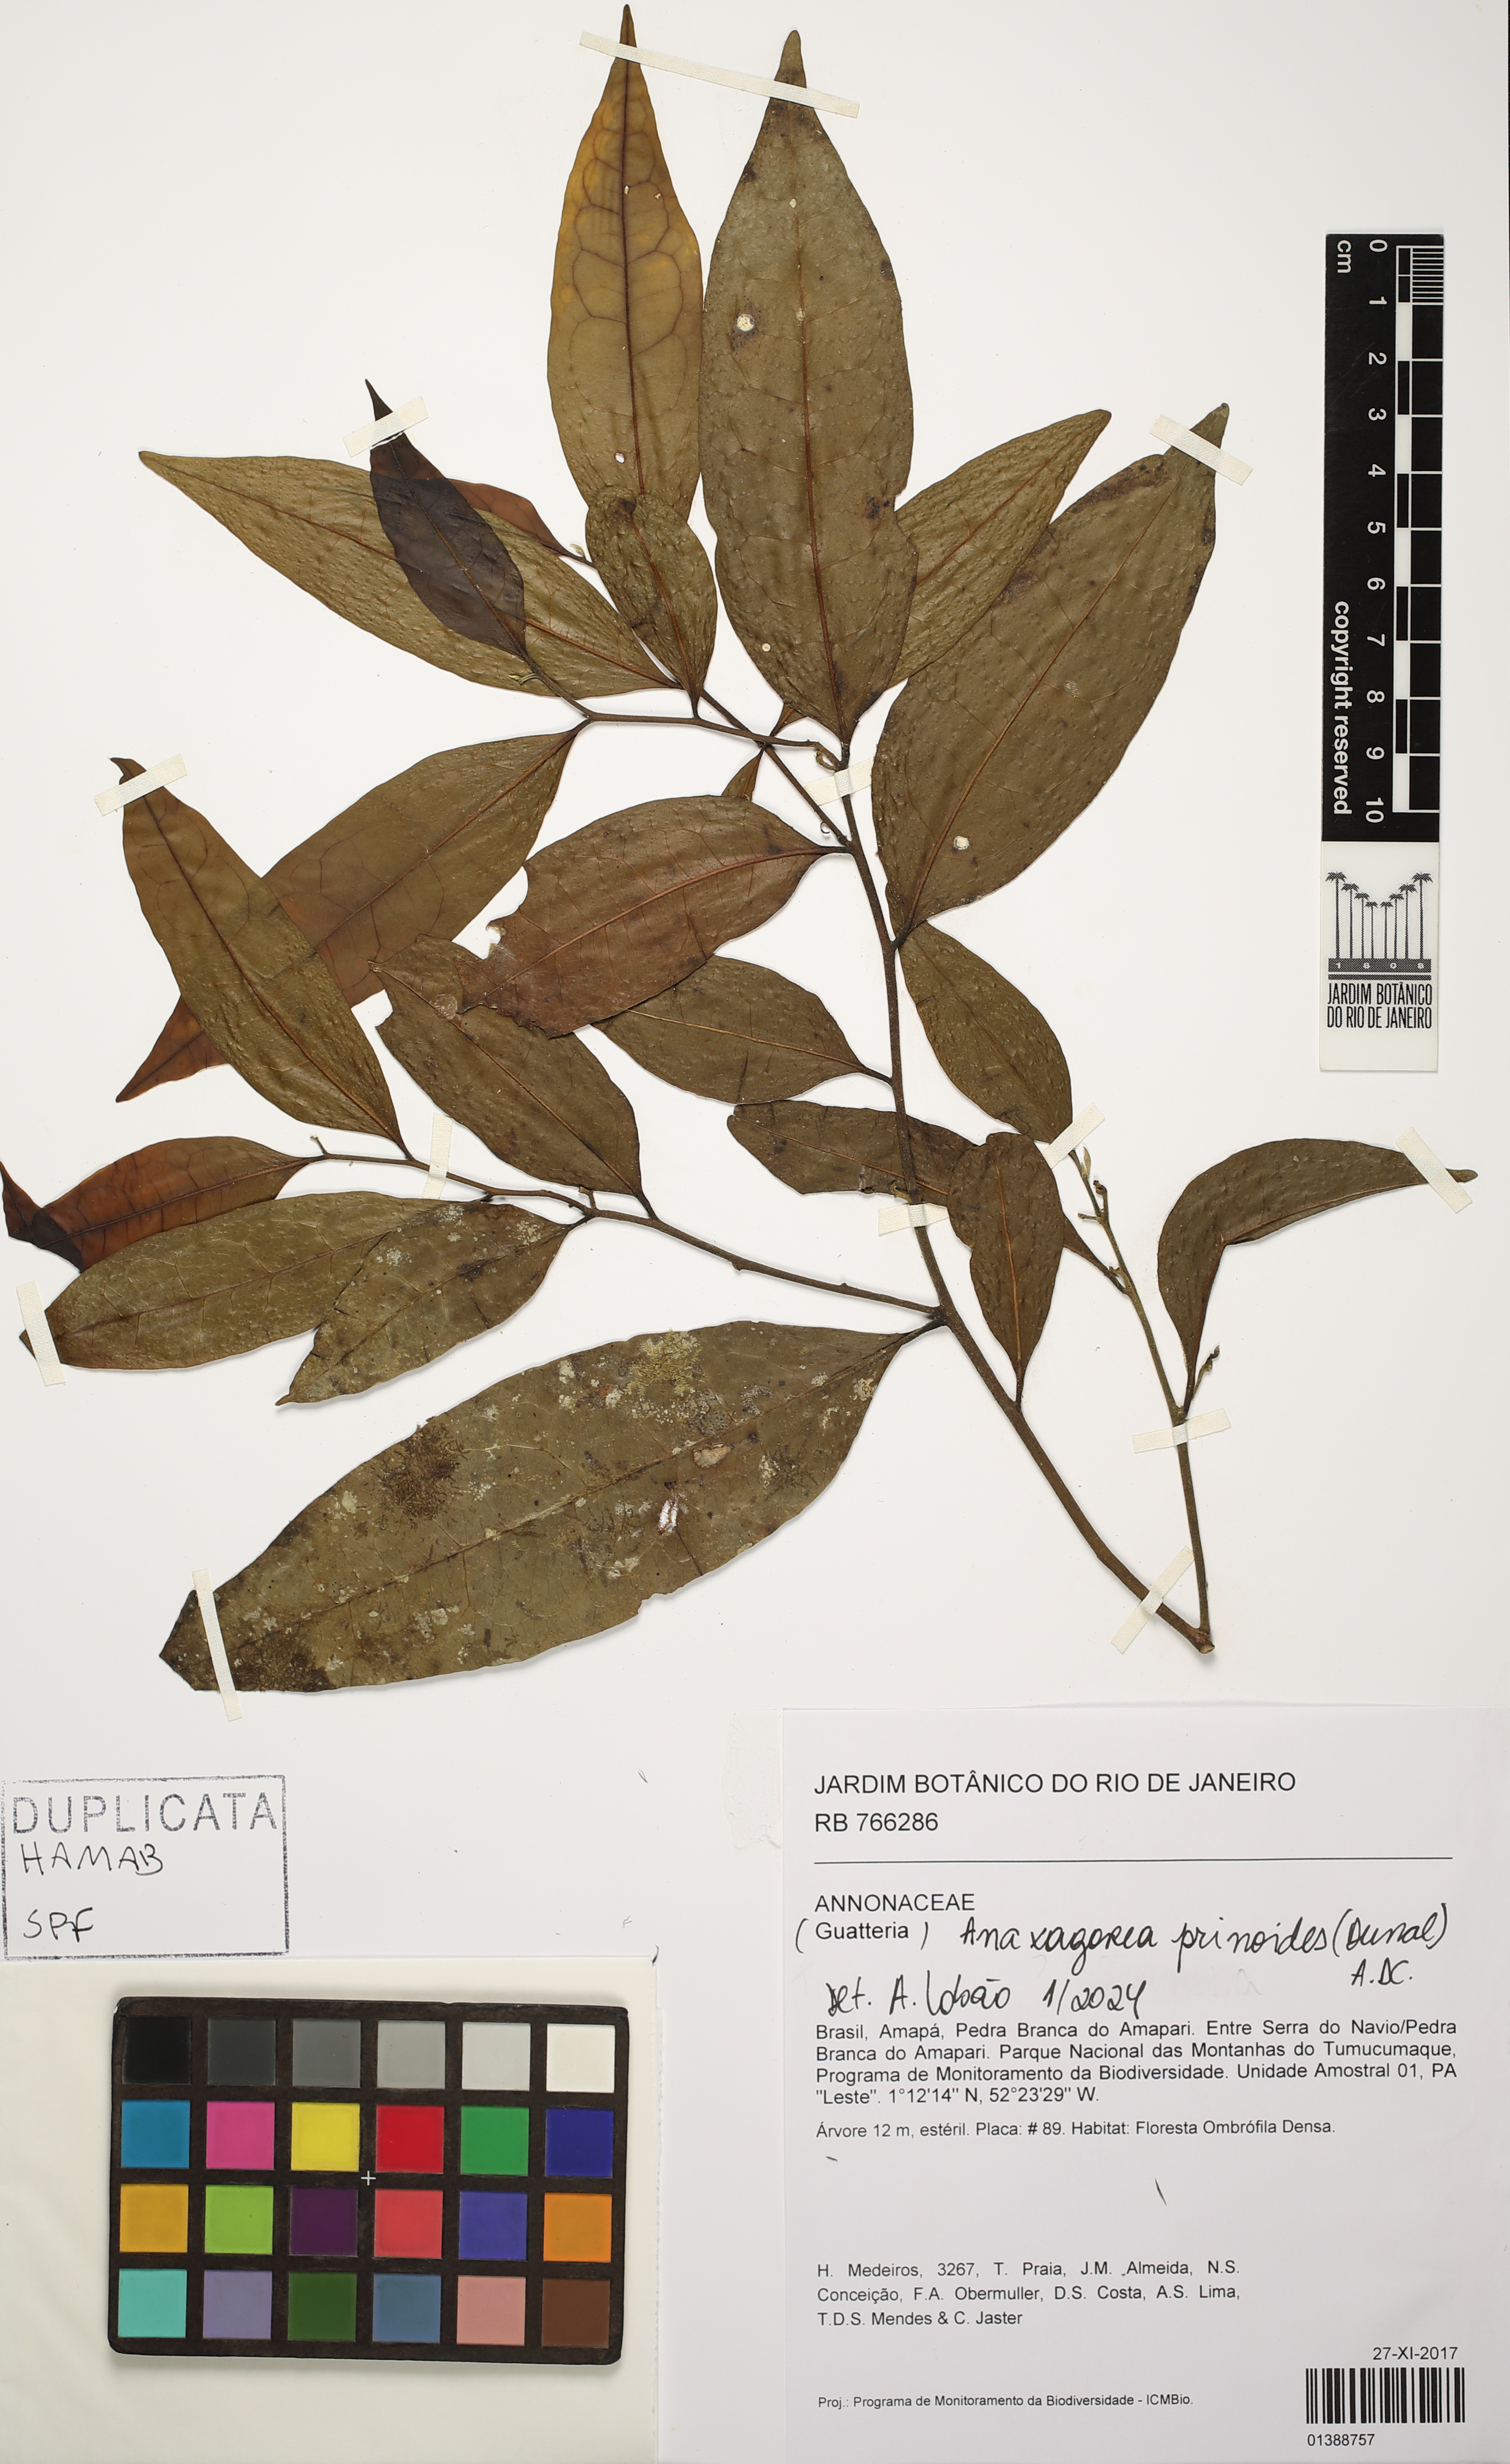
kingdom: Plantae
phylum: Tracheophyta
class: Magnoliopsida
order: Magnoliales
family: Annonaceae
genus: Anaxagorea
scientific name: Anaxagorea prinoides
